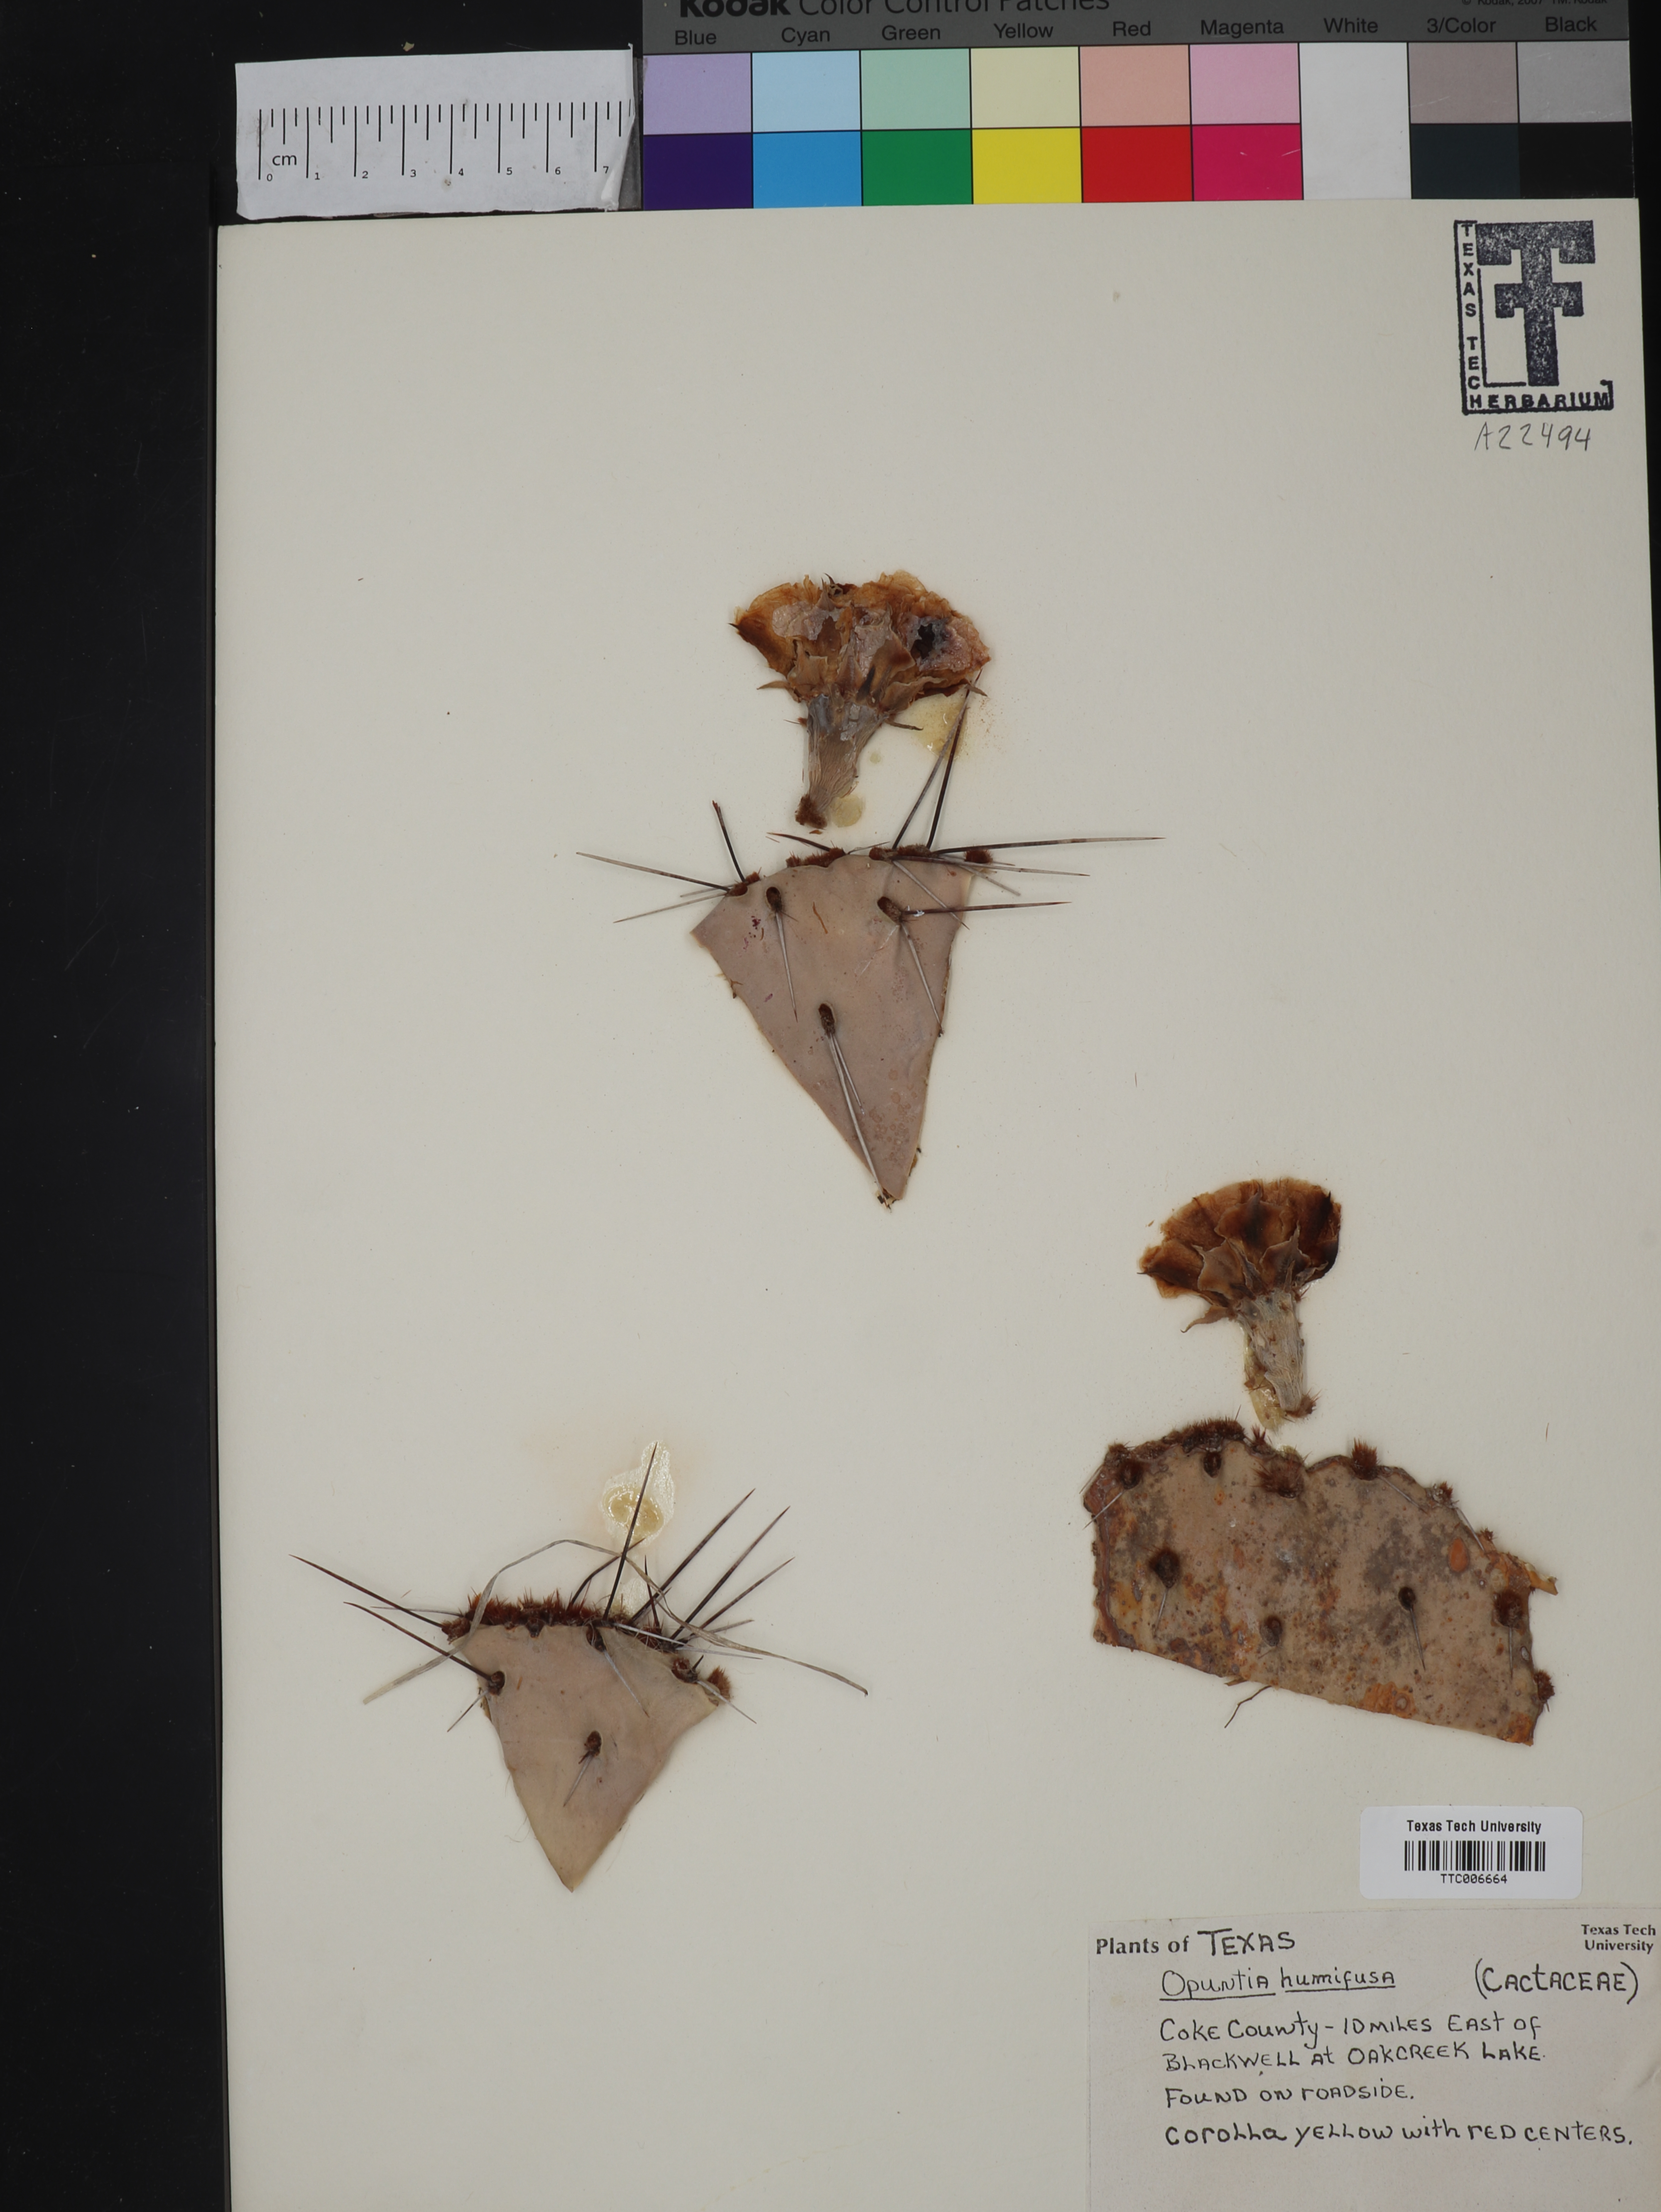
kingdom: Plantae
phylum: Tracheophyta
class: Magnoliopsida
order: Caryophyllales
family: Cactaceae
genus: Opuntia
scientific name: Opuntia humifusa
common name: Eastern prickly-pear
